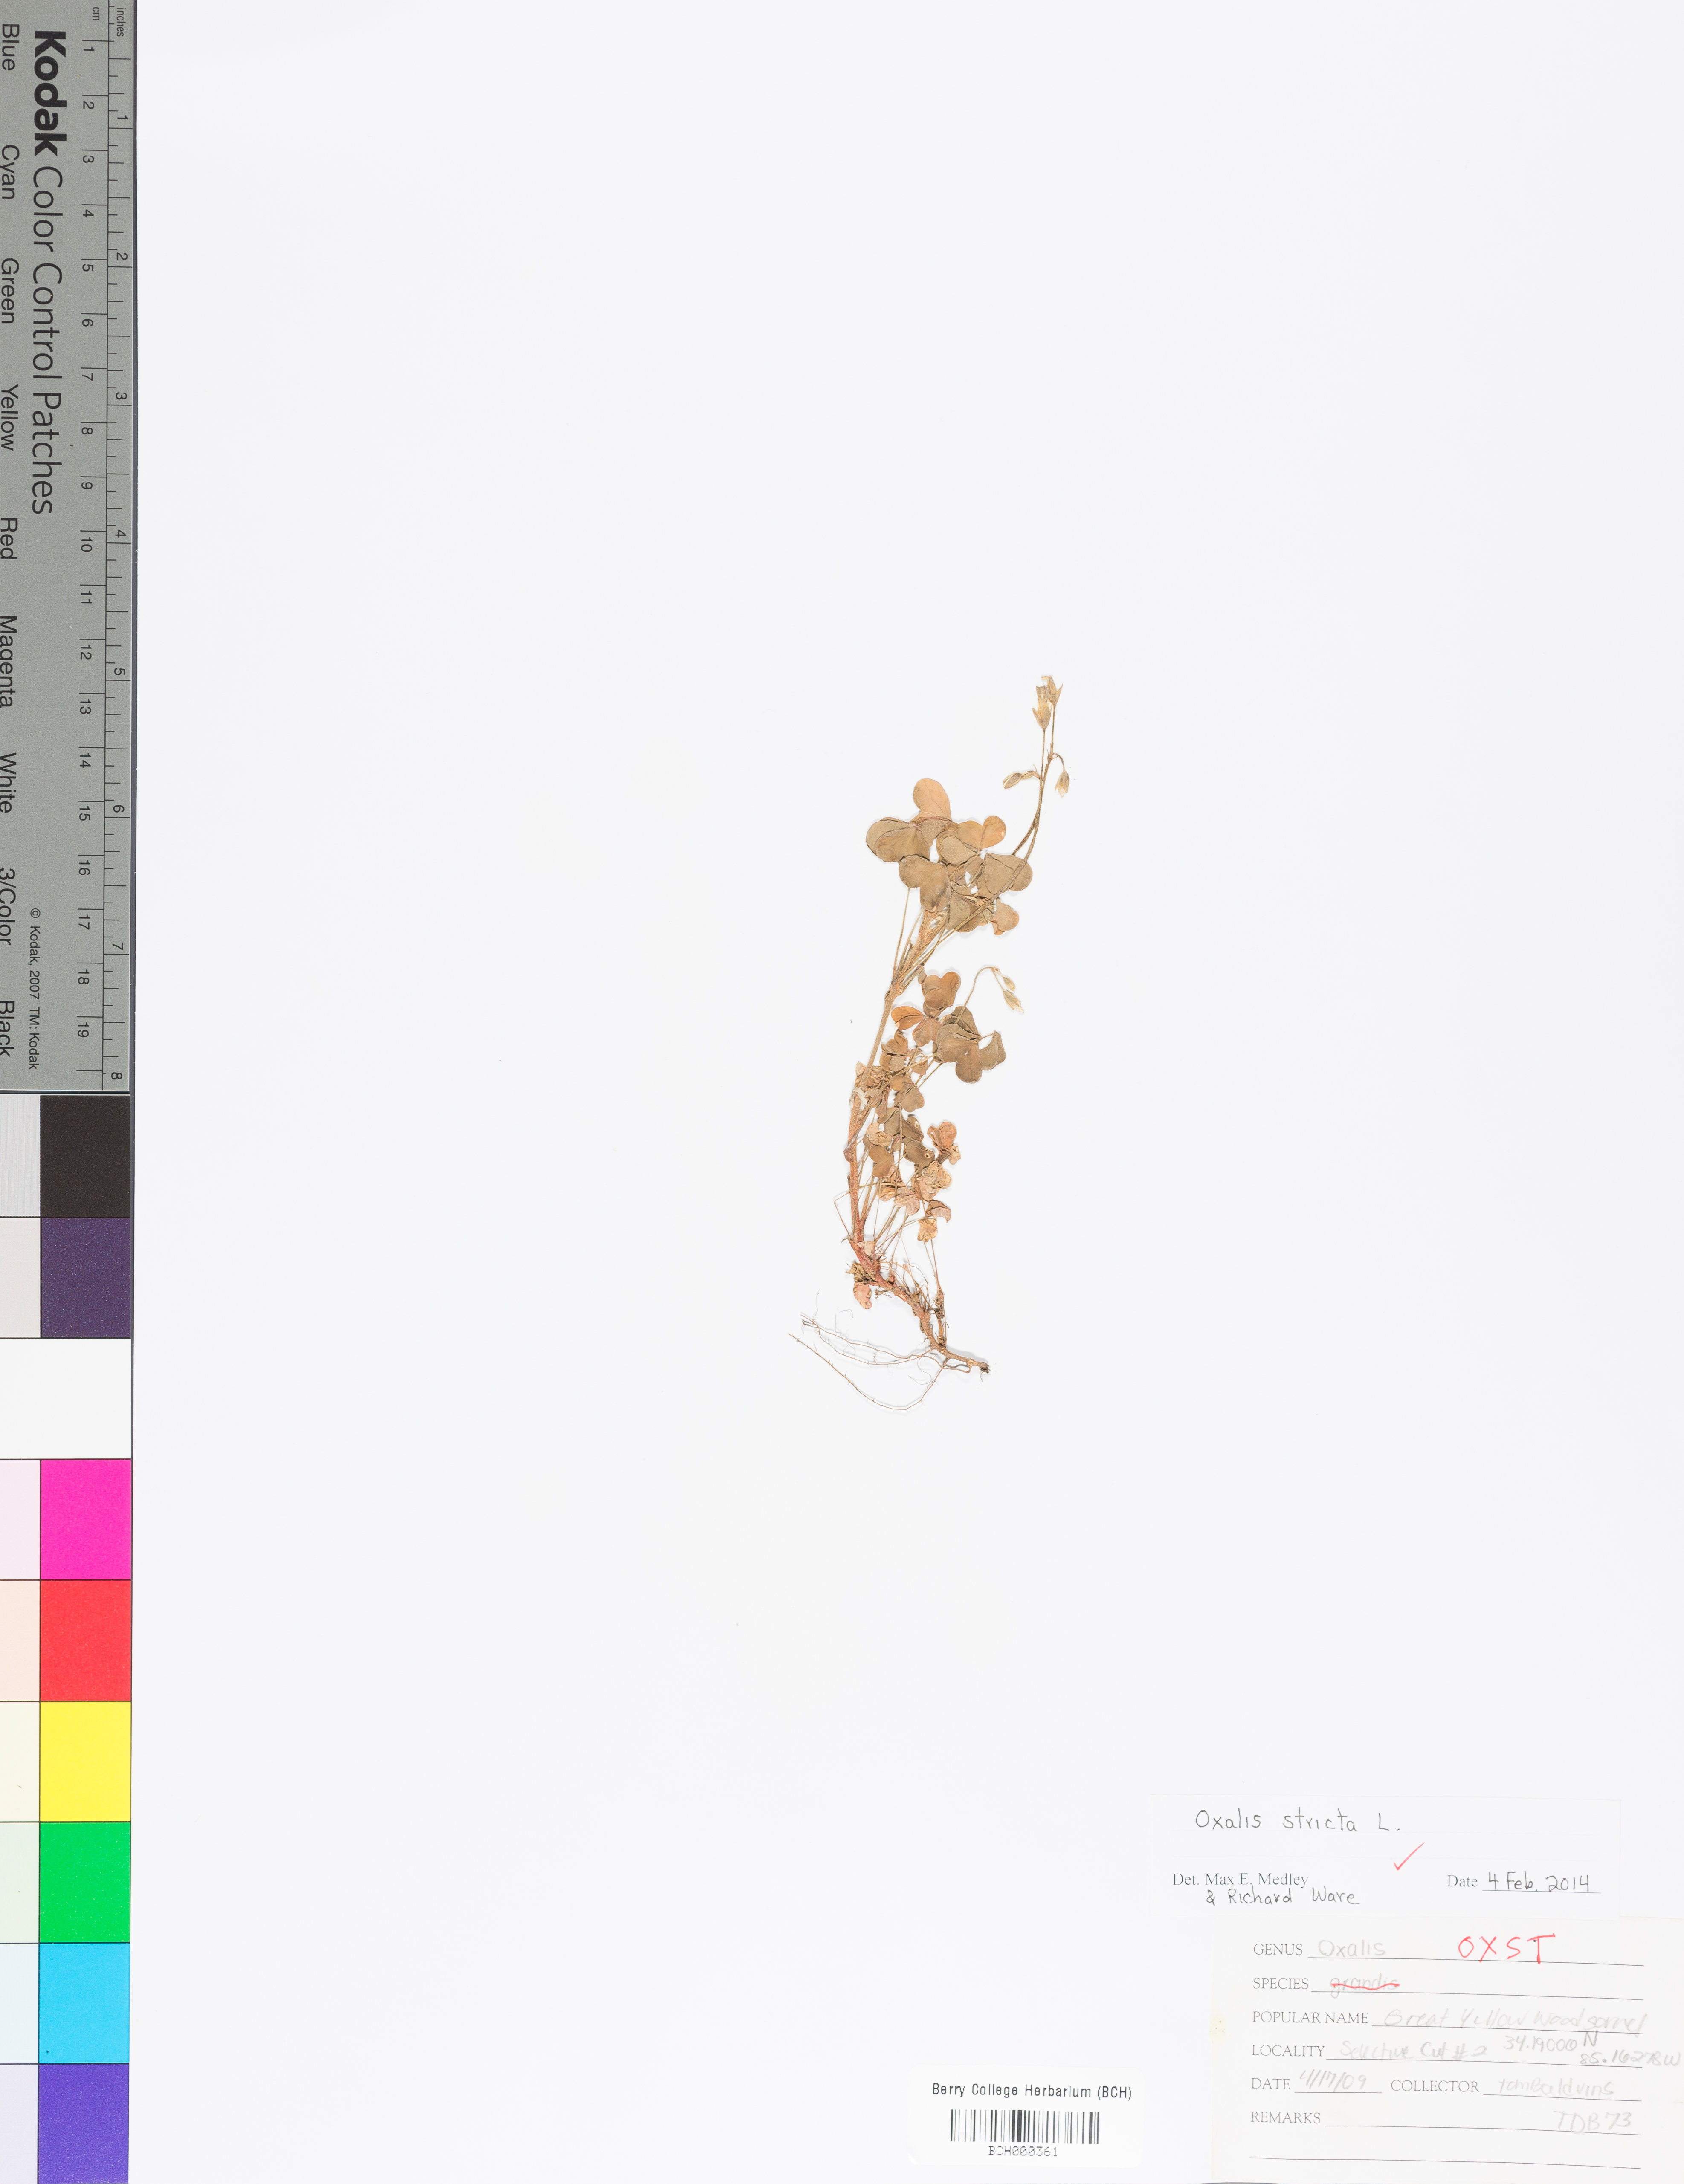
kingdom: Plantae
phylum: Tracheophyta
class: Magnoliopsida
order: Oxalidales
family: Oxalidaceae
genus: Oxalis
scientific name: Oxalis stricta
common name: Upright yellow-sorrel
